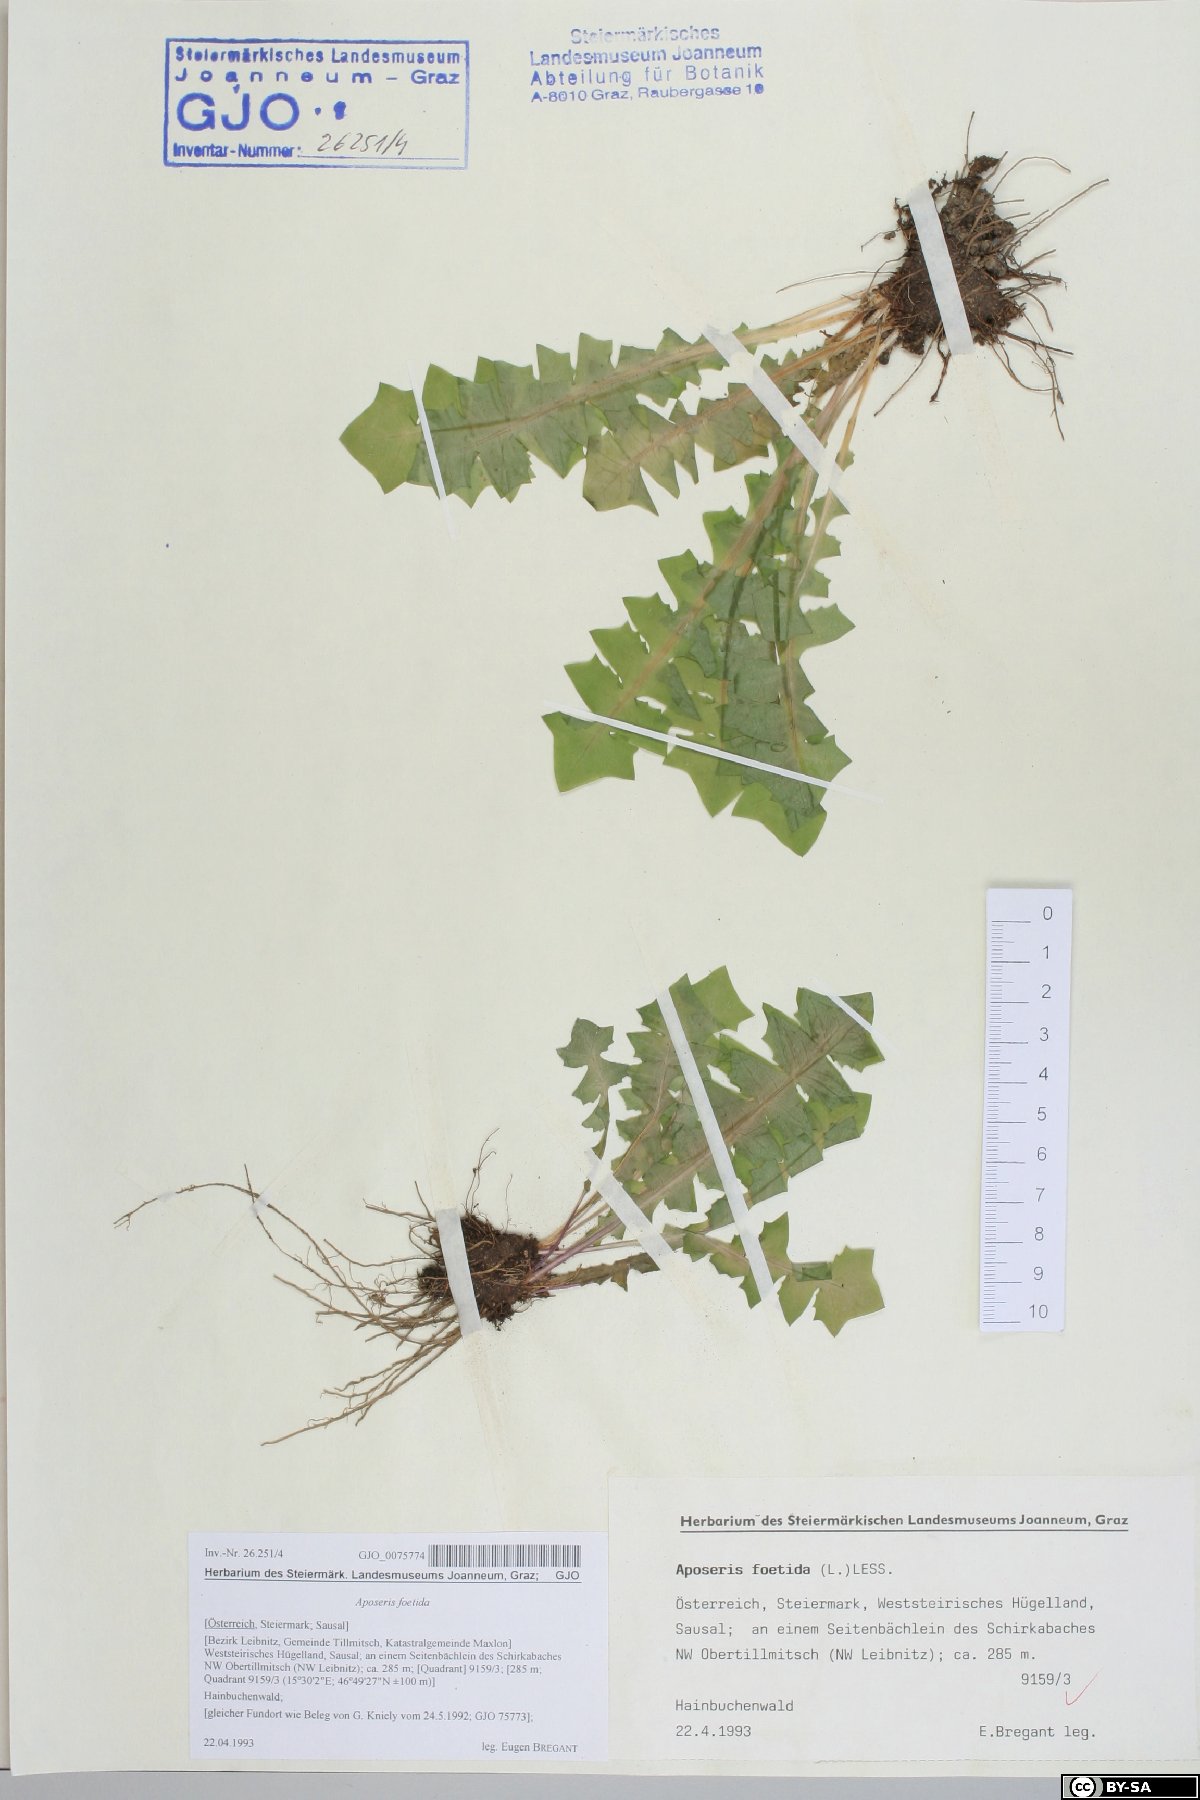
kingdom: Plantae
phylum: Tracheophyta
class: Magnoliopsida
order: Asterales
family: Asteraceae
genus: Aposeris
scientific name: Aposeris foetida
